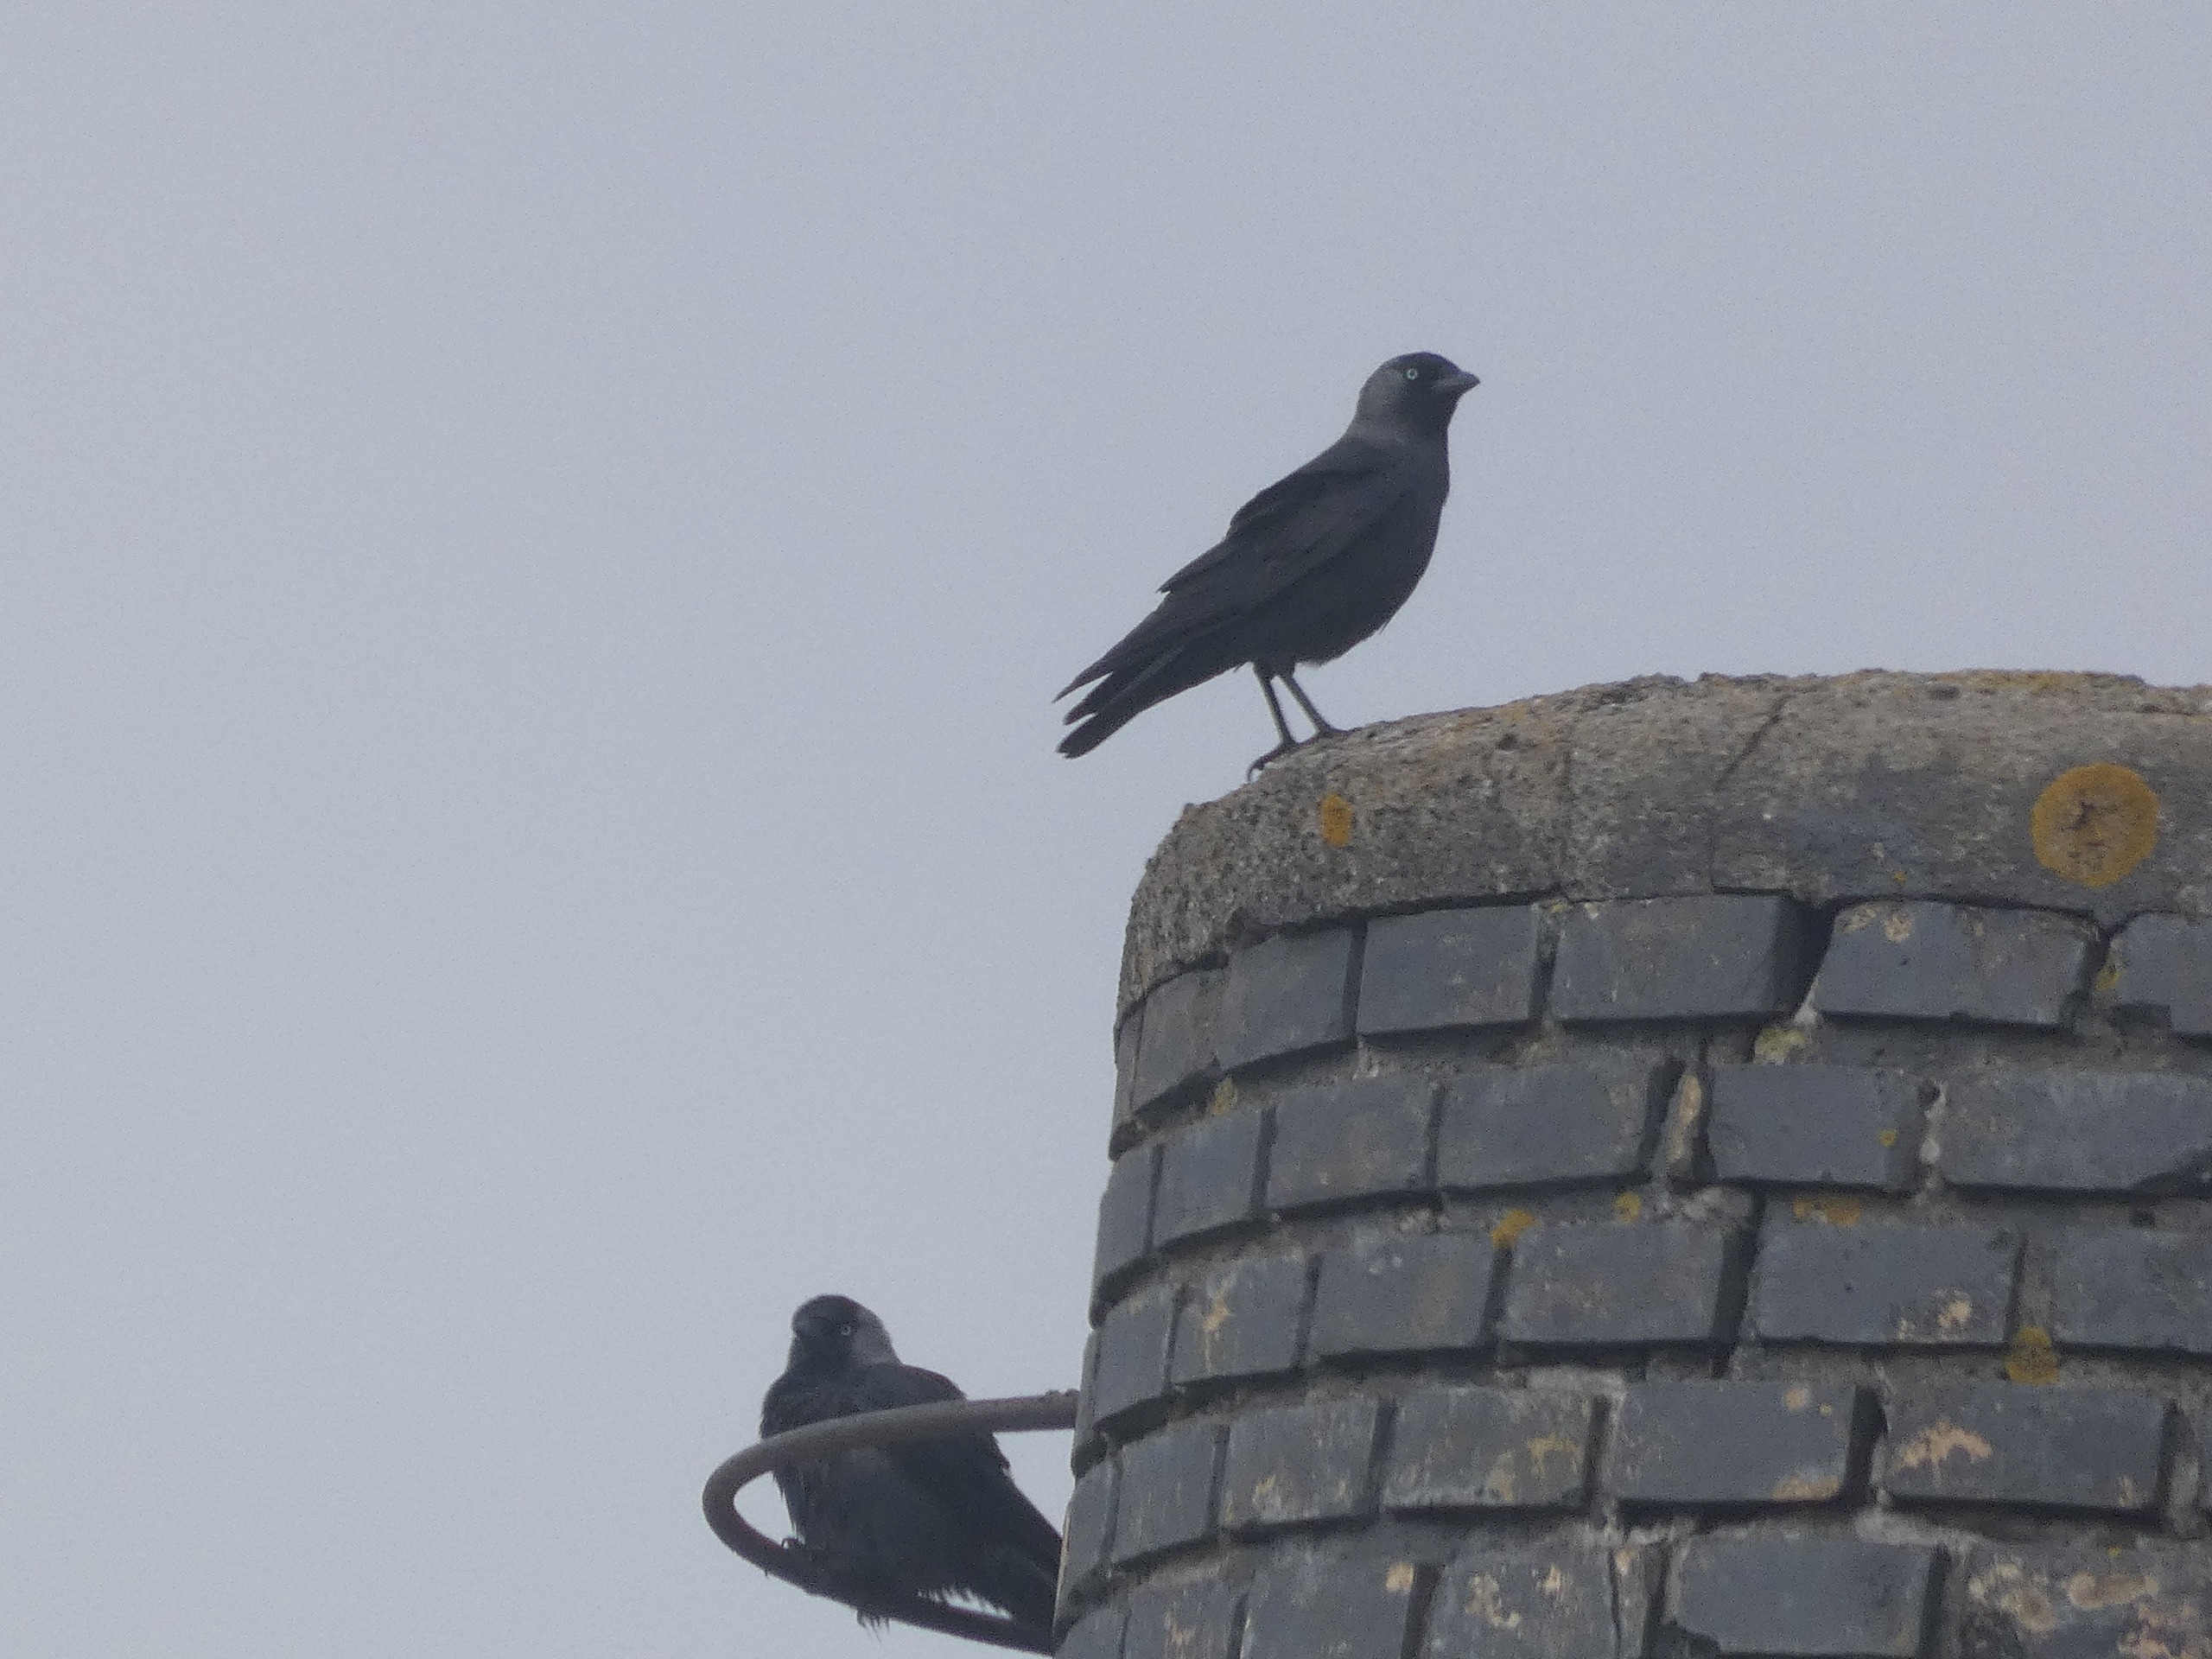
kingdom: Animalia
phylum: Chordata
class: Aves
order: Passeriformes
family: Corvidae
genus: Coloeus
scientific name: Coloeus monedula
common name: Allike
